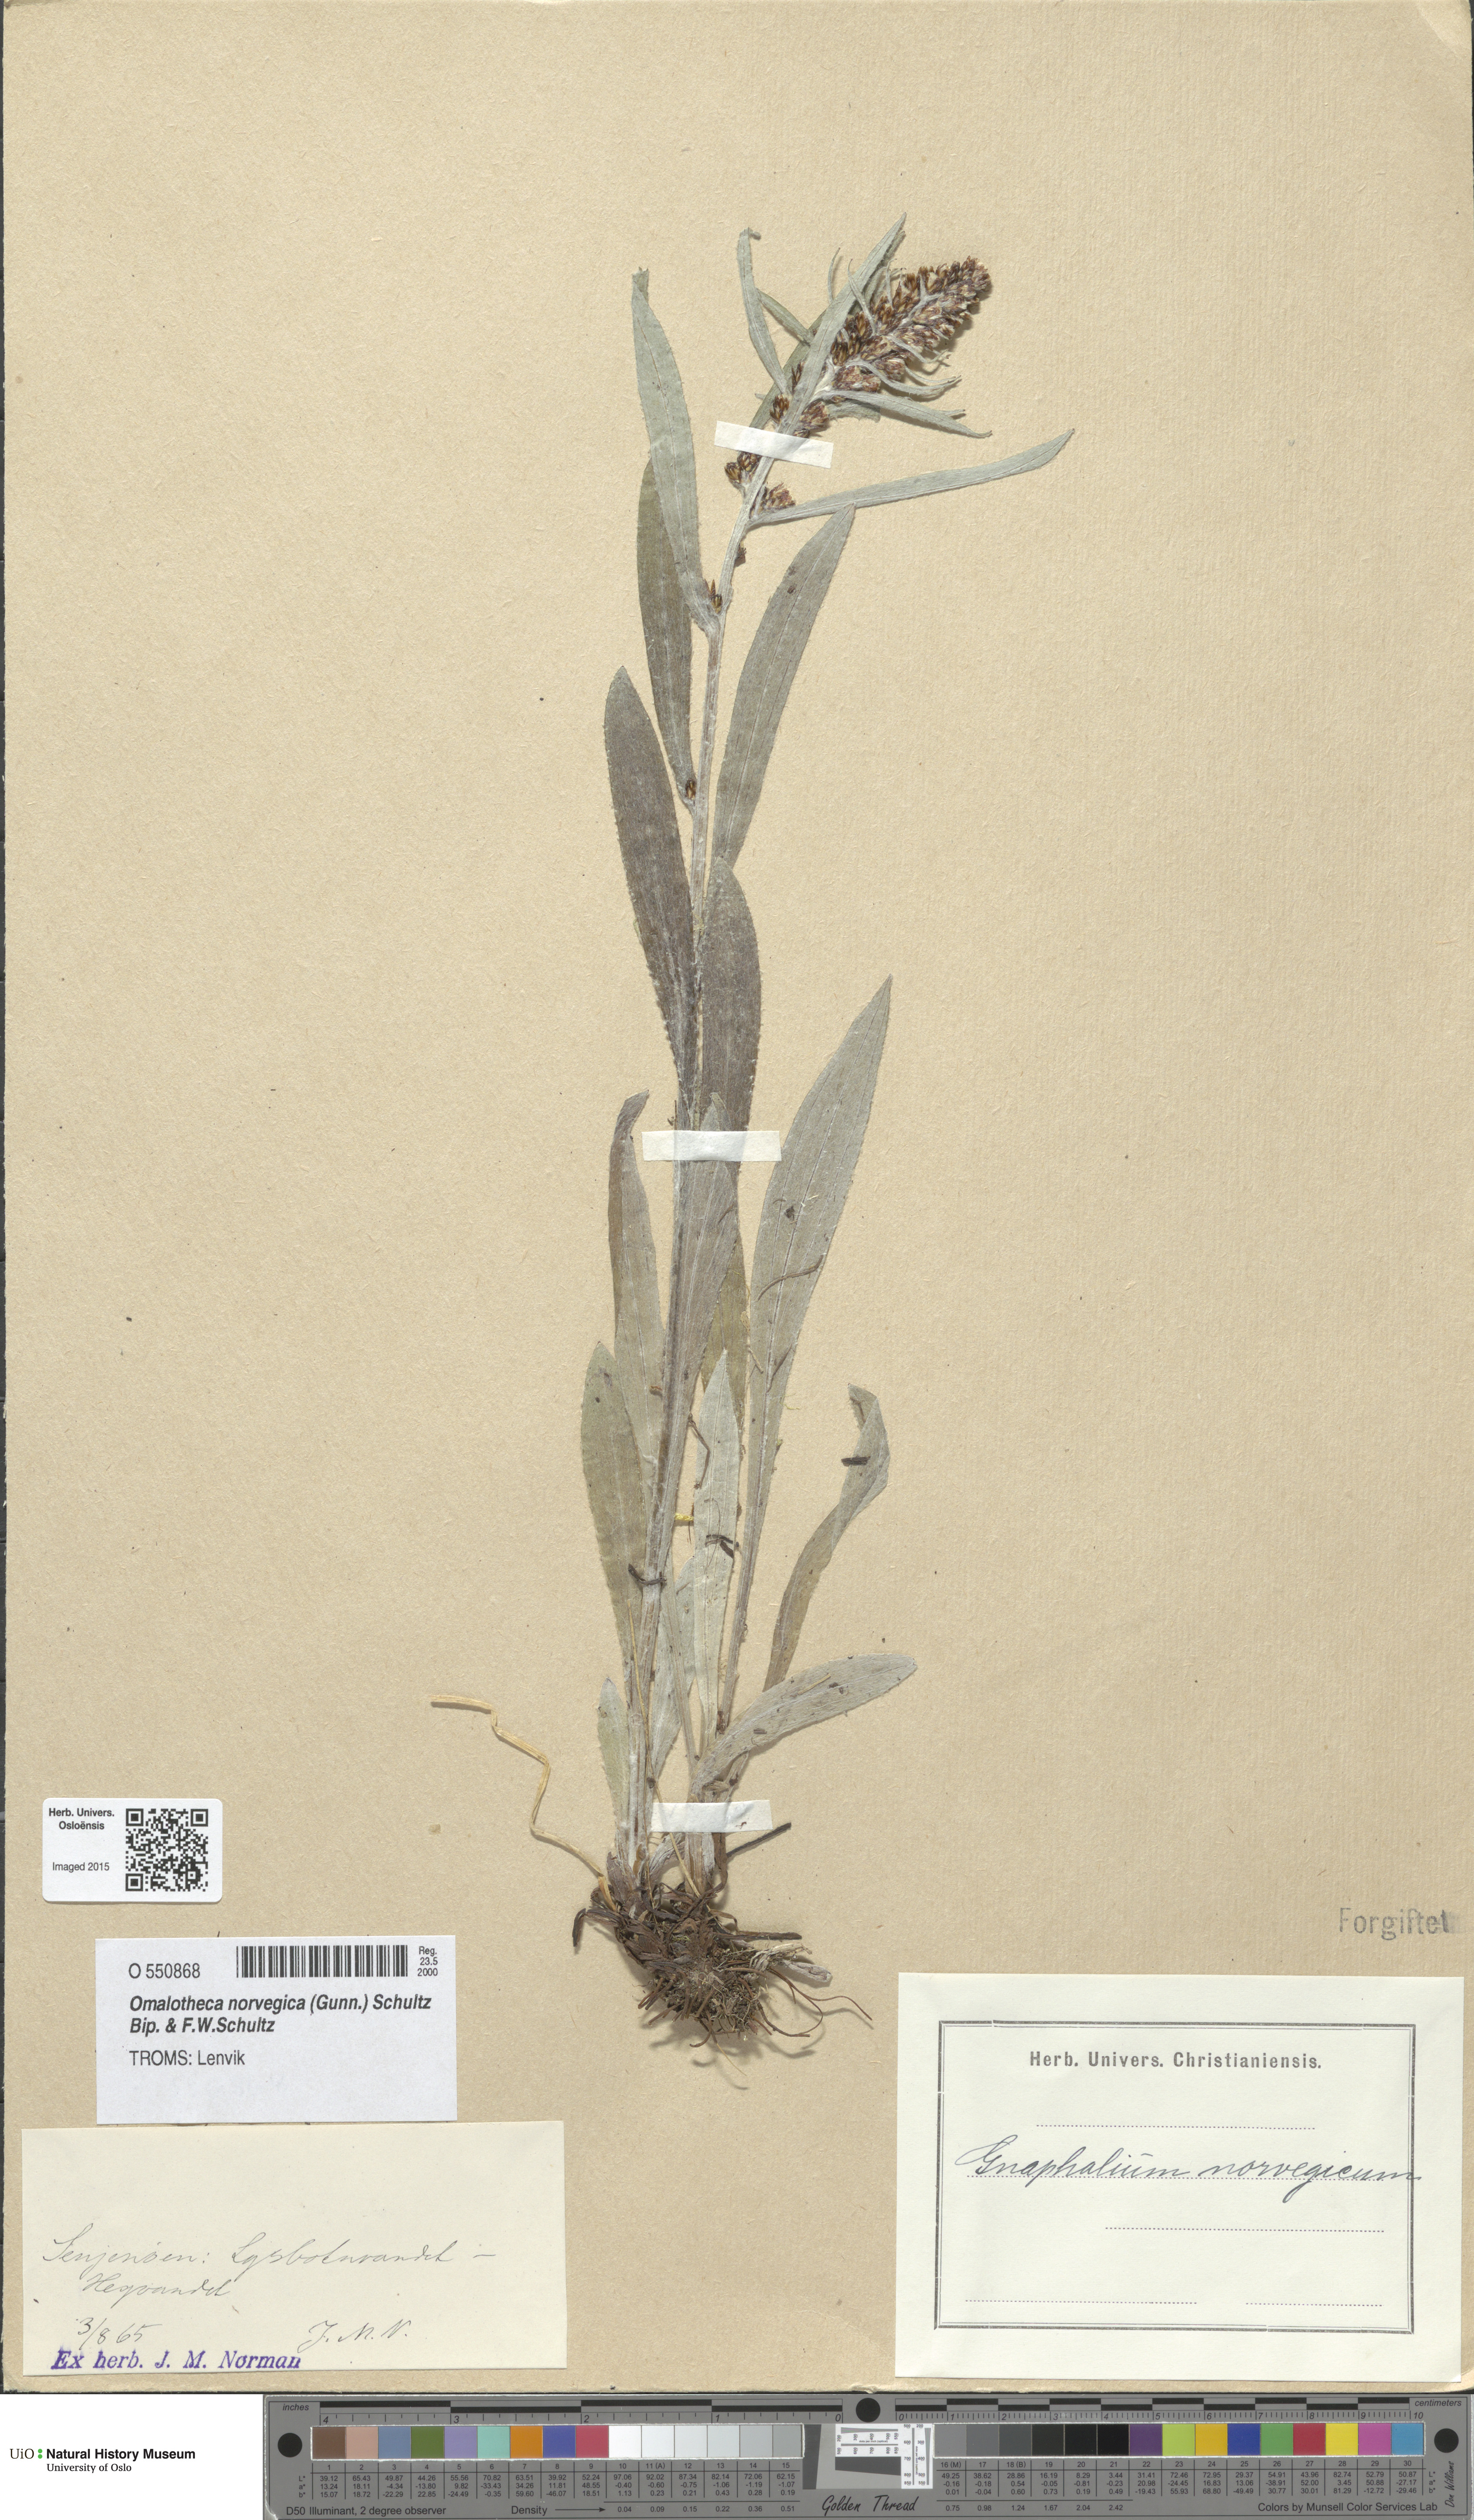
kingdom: Plantae
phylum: Tracheophyta
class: Magnoliopsida
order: Asterales
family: Asteraceae
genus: Omalotheca
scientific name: Omalotheca norvegica
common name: Norwegian arctic-cudweed
